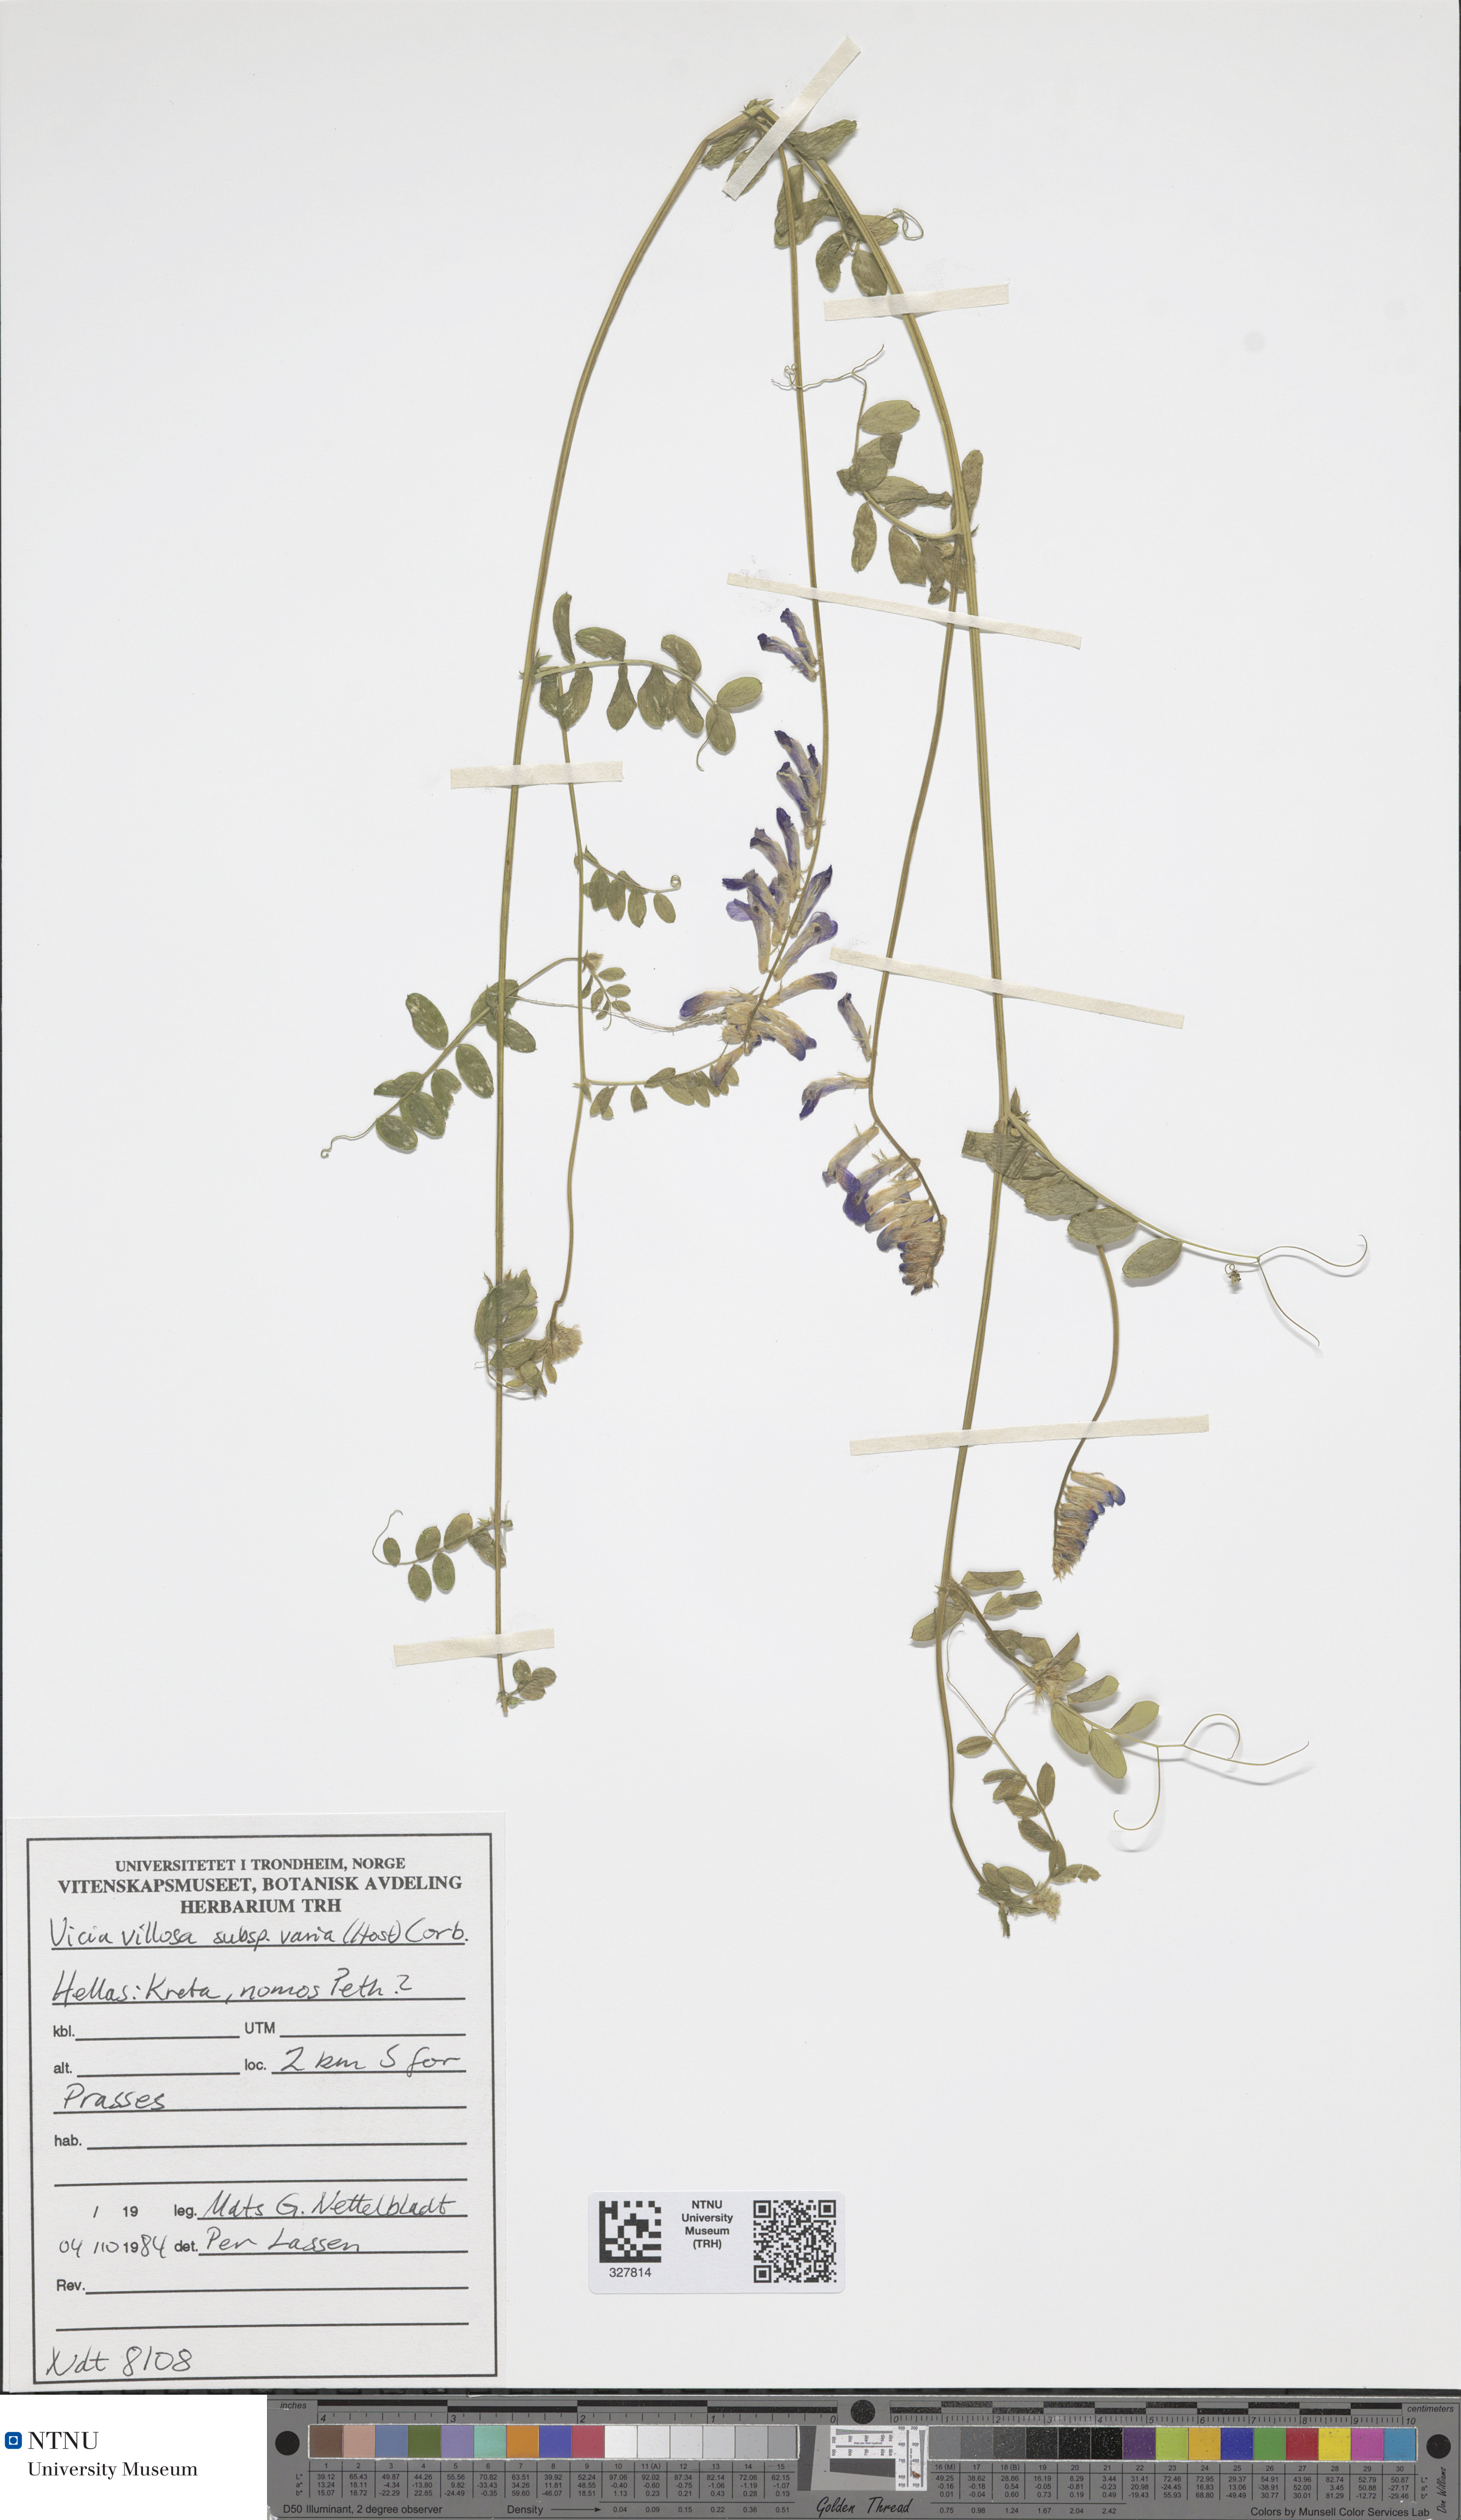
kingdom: Plantae
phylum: Tracheophyta
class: Magnoliopsida
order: Fabales
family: Fabaceae
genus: Vicia
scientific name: Vicia villosa
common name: Fodder vetch
